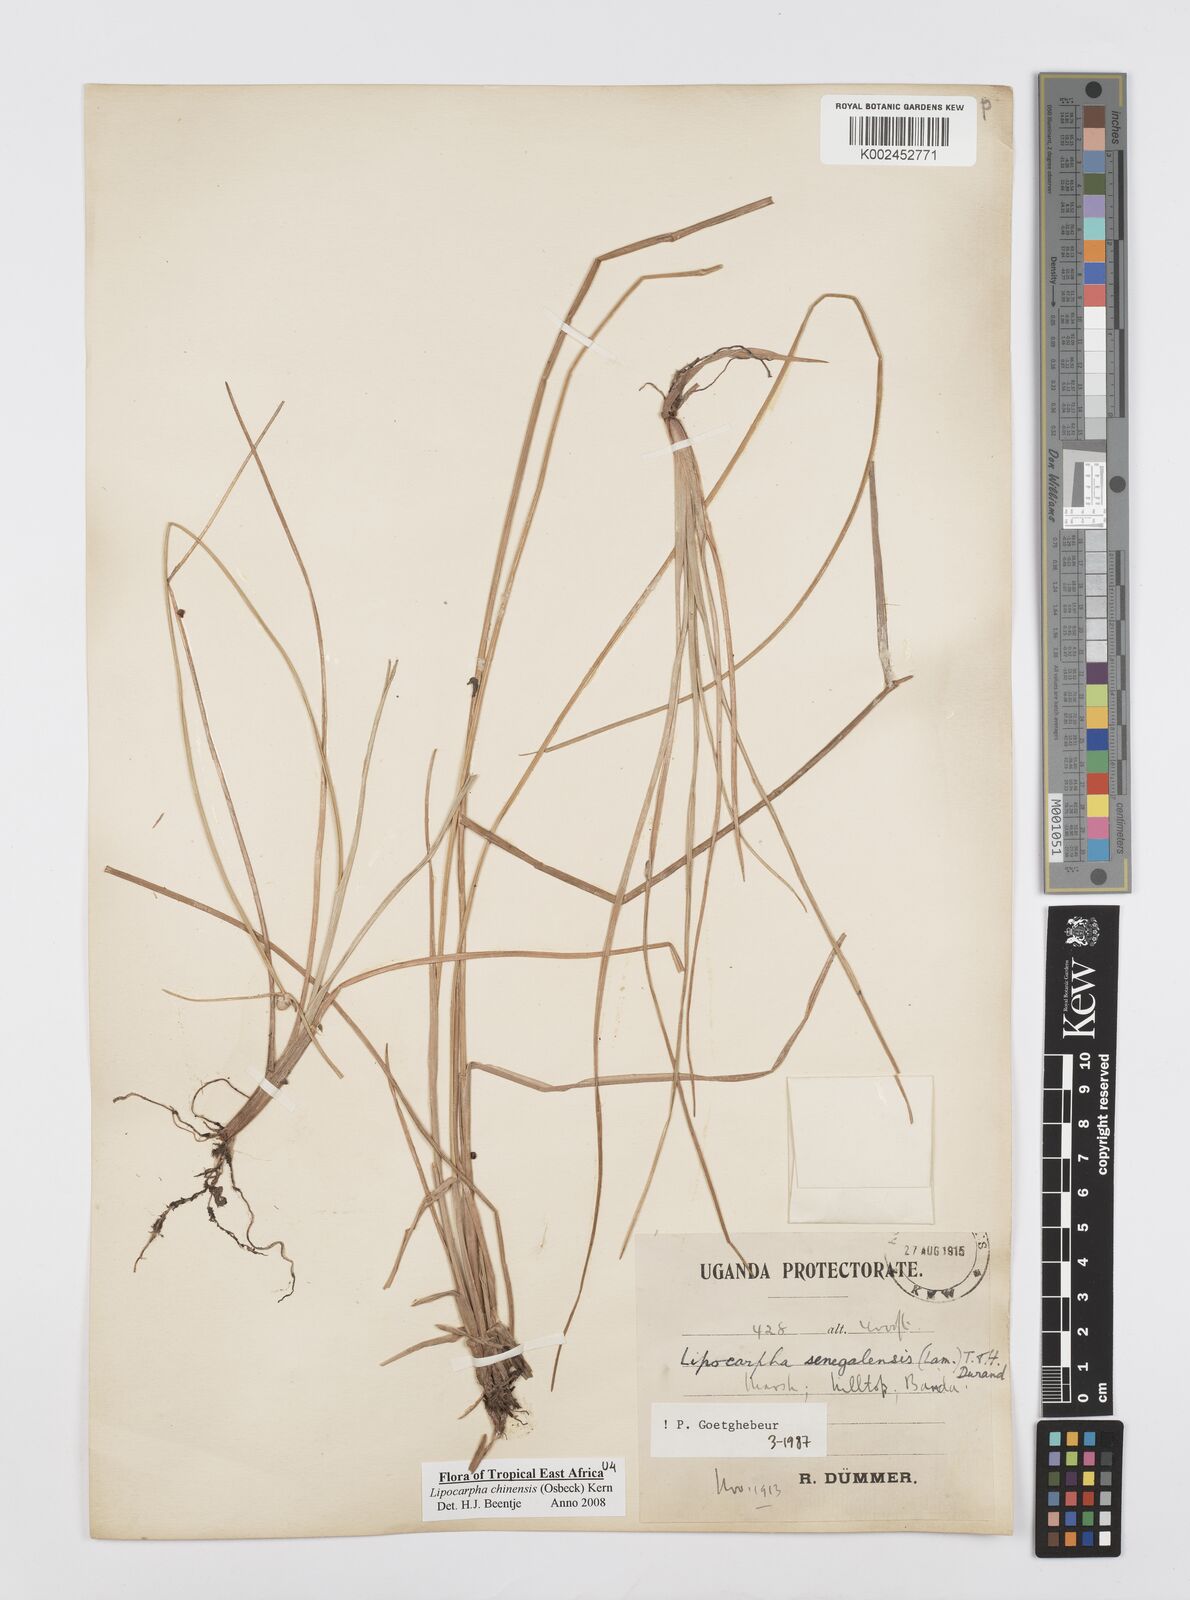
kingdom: Plantae
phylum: Tracheophyta
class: Liliopsida
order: Poales
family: Cyperaceae
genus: Cyperus
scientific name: Cyperus albescens
